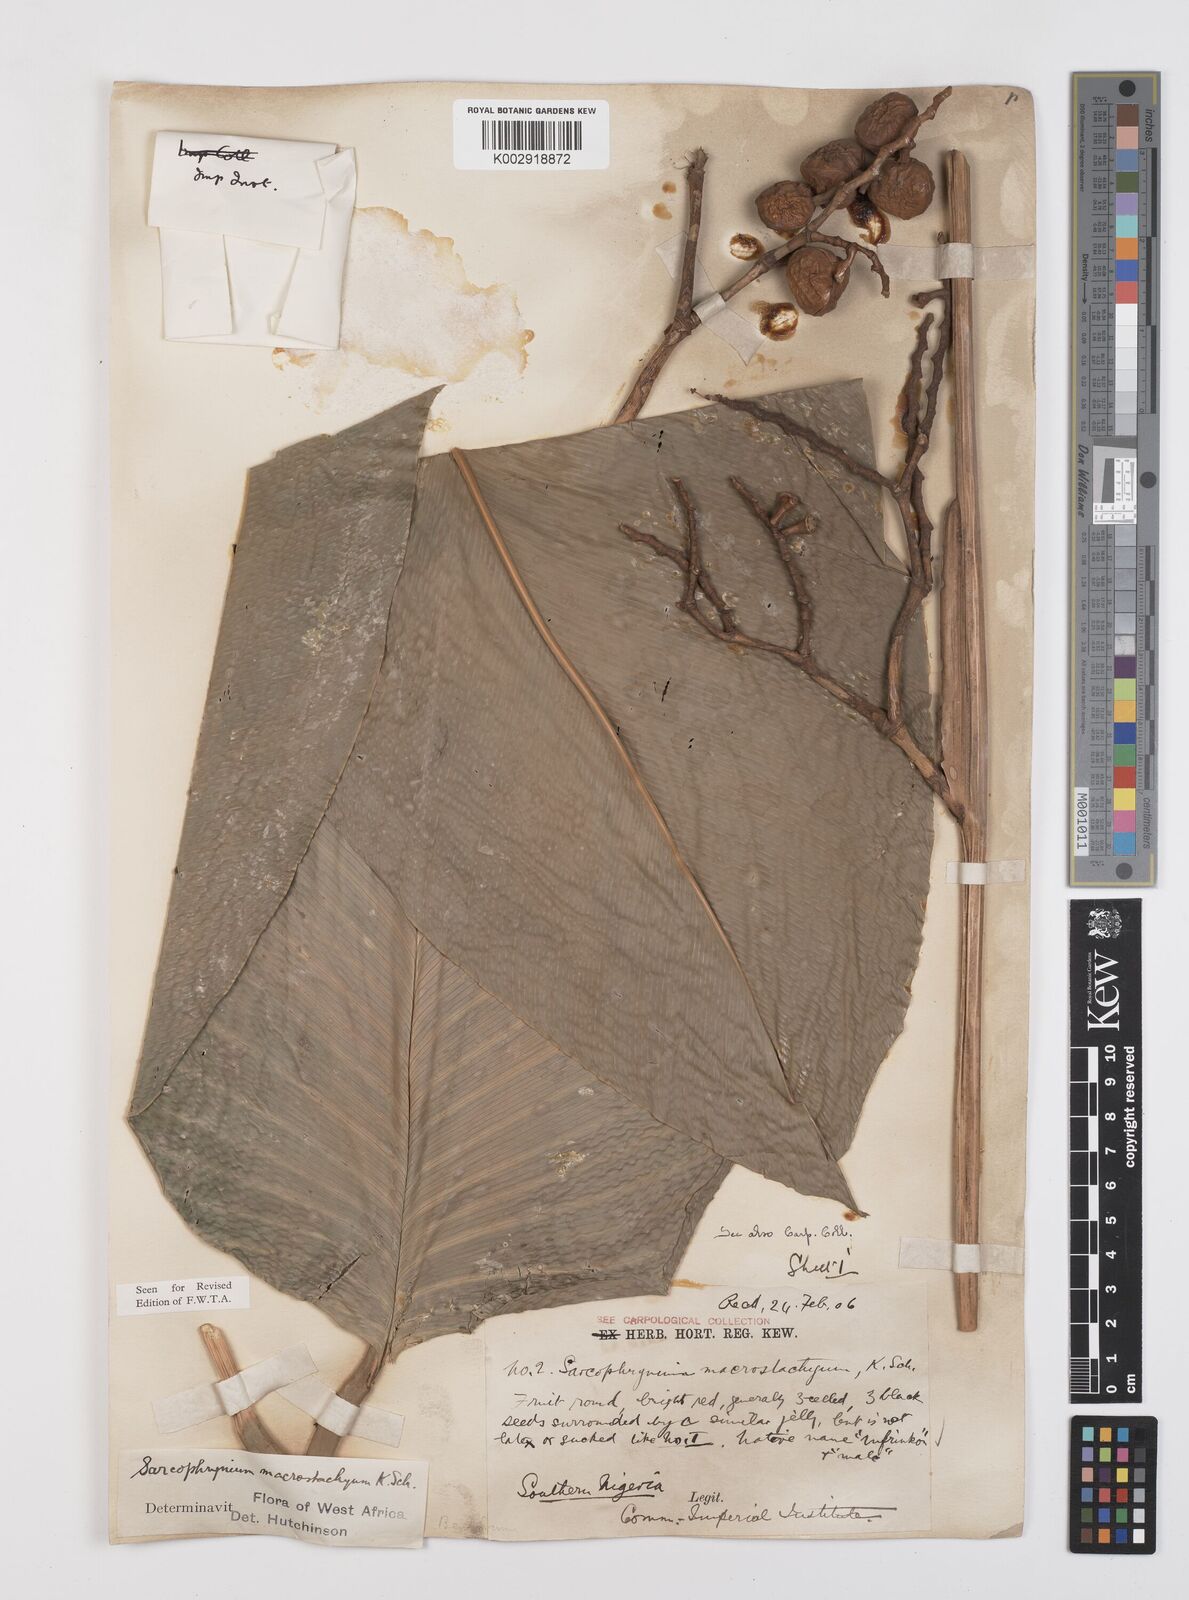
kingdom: Plantae
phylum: Tracheophyta
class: Liliopsida
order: Zingiberales
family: Marantaceae
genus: Megaphrynium
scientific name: Megaphrynium macrostachyum
